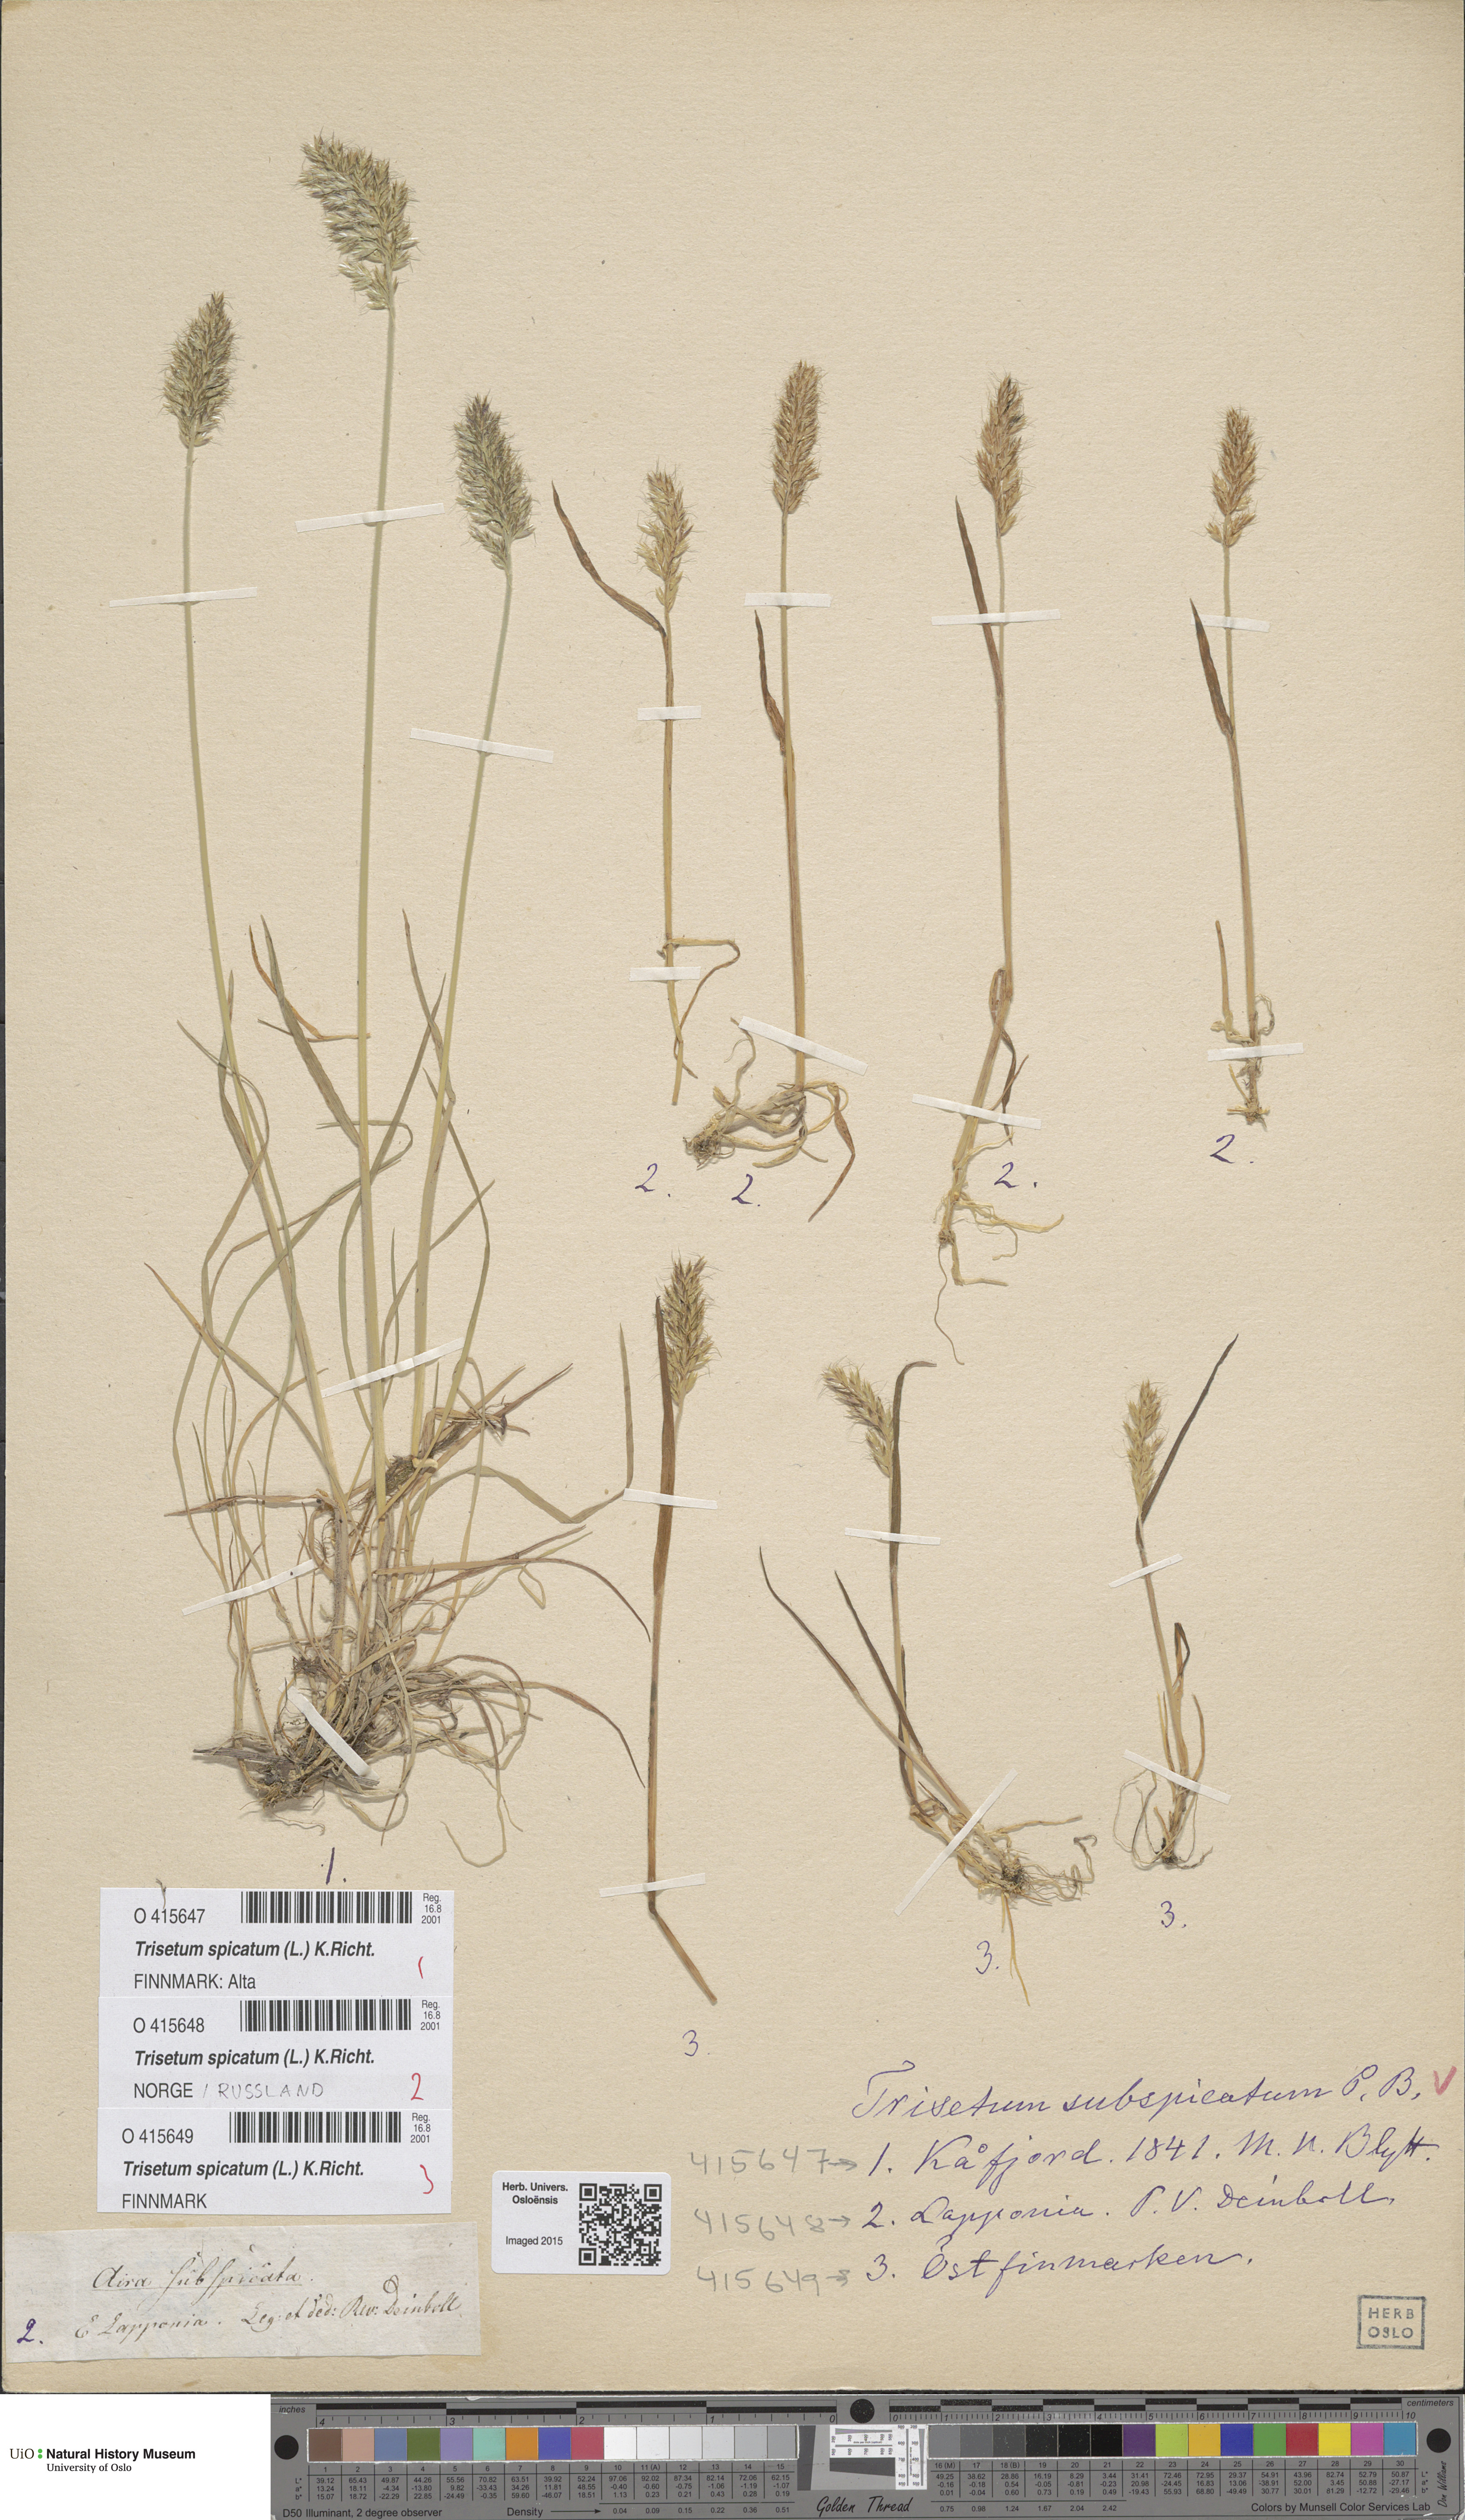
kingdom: Plantae
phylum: Tracheophyta
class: Liliopsida
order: Poales
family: Poaceae
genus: Koeleria
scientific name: Koeleria spicata
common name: Mountain trisetum
